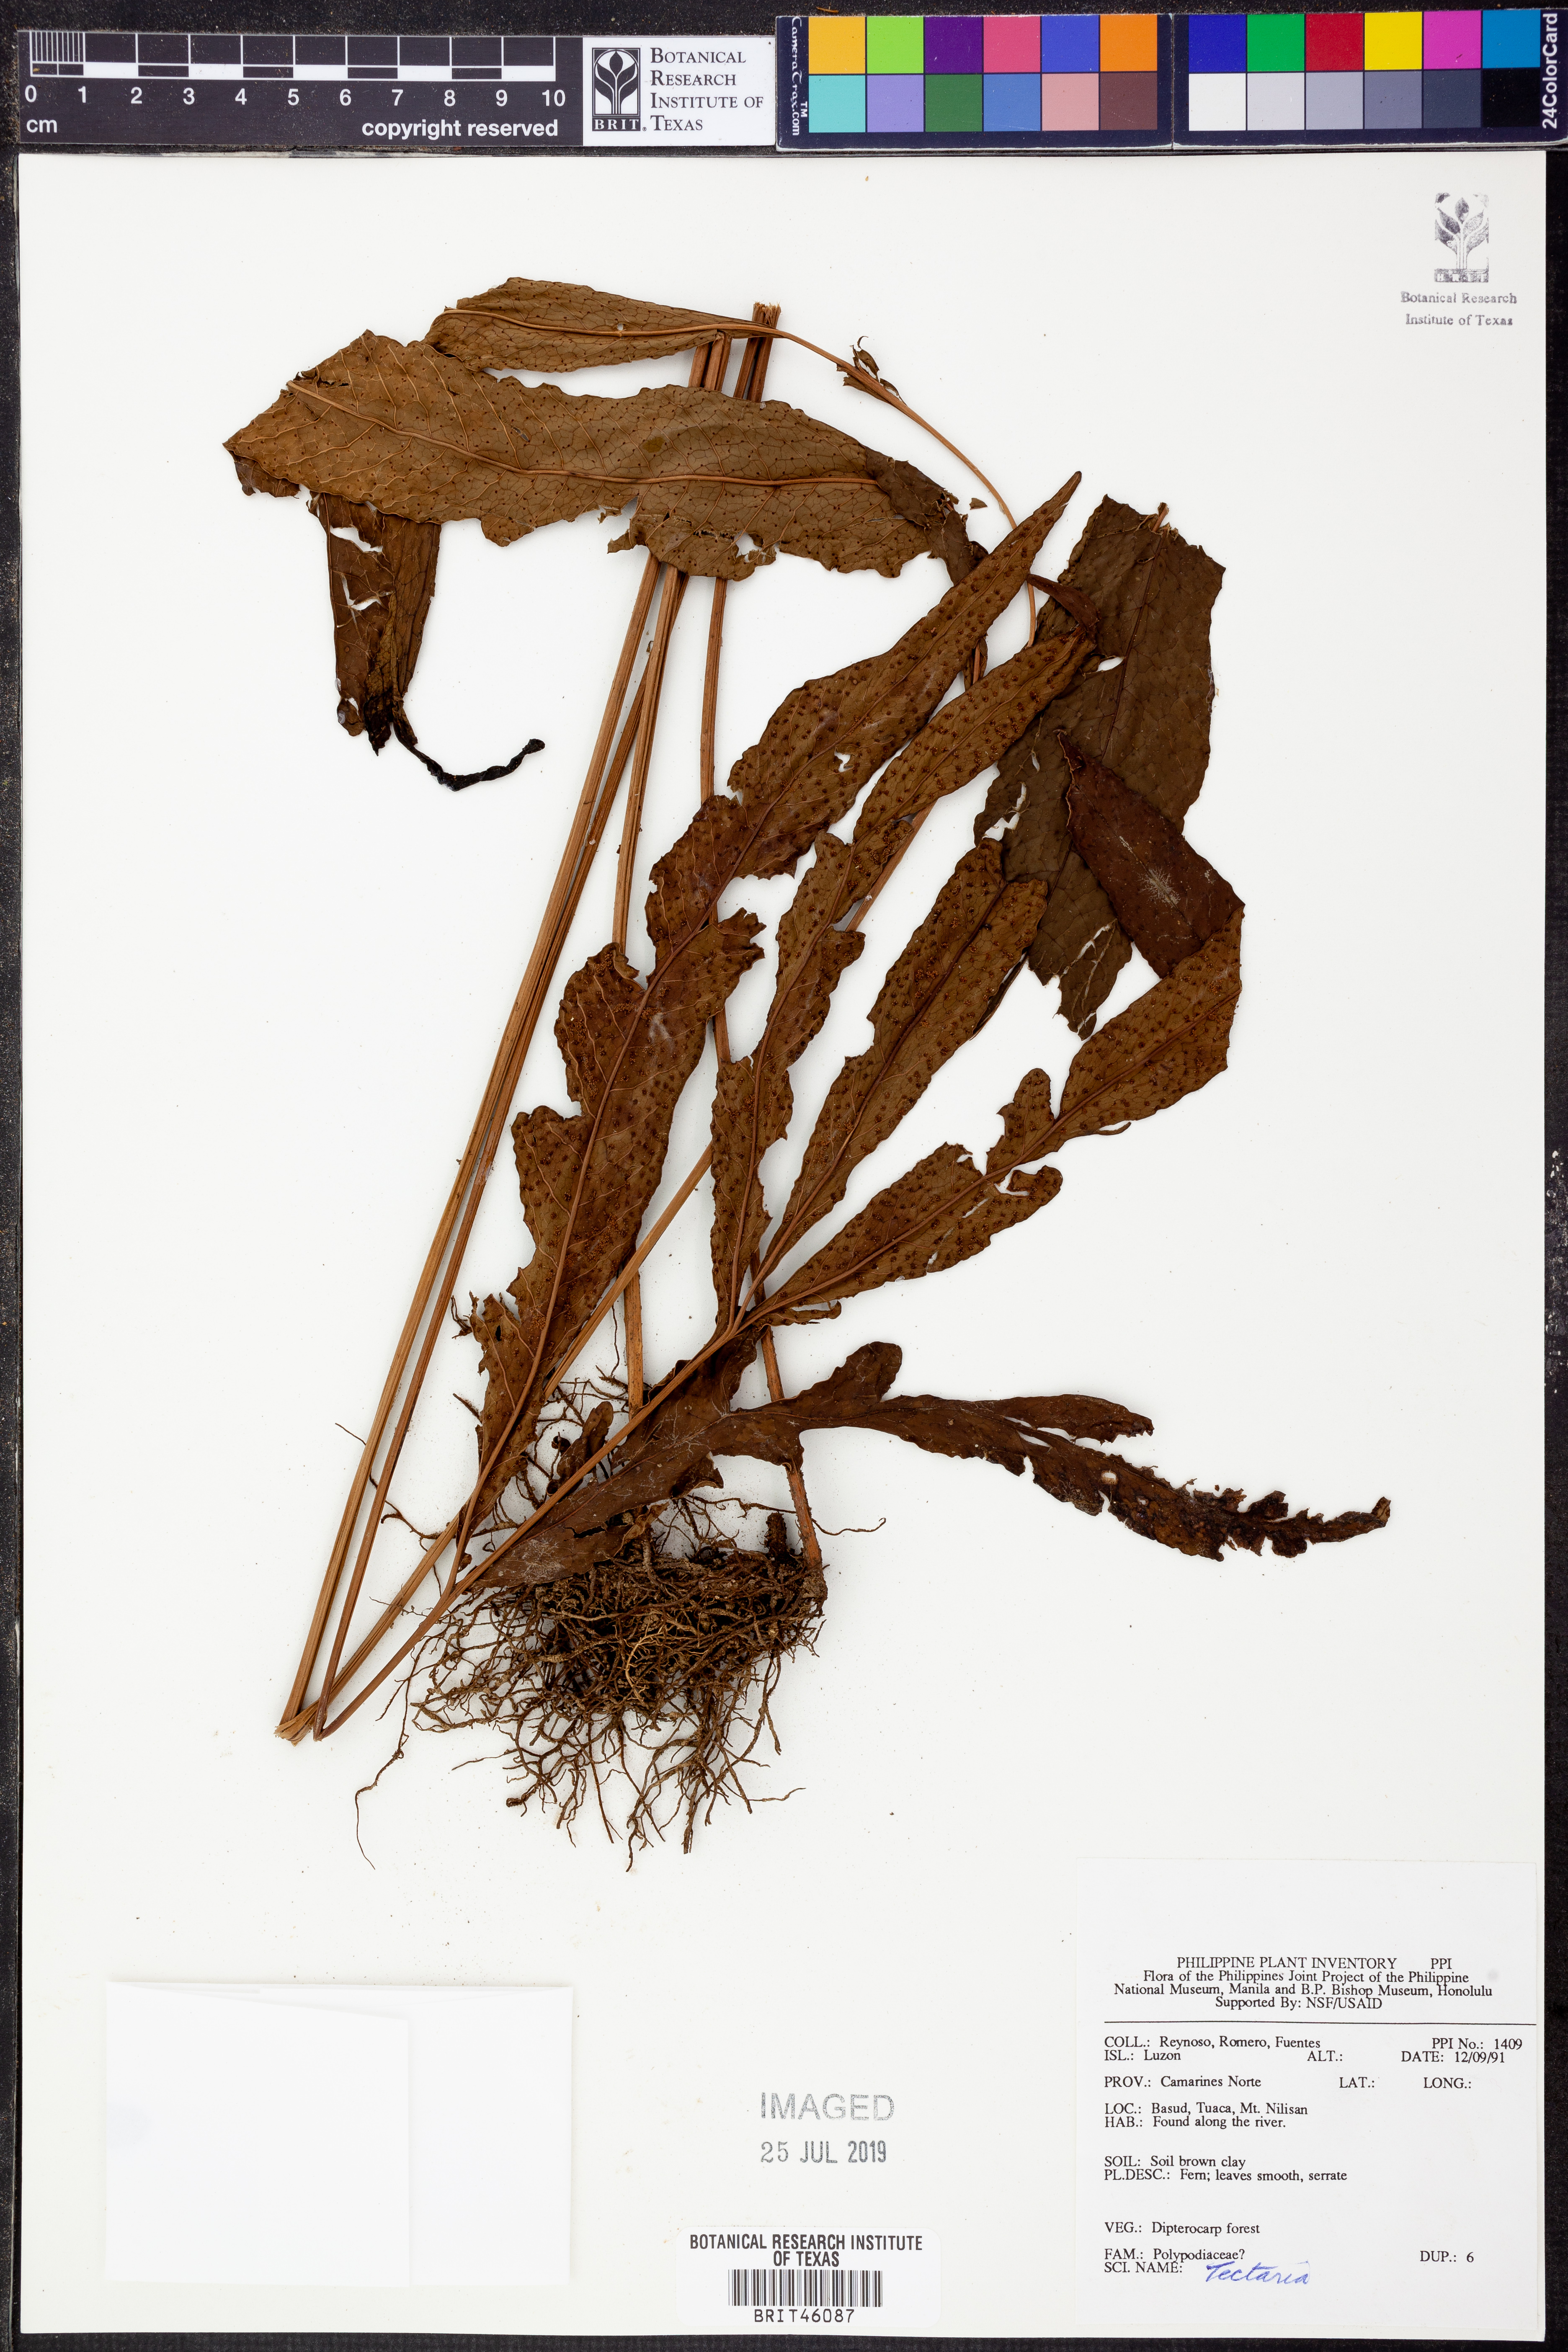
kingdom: Plantae
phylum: Tracheophyta
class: Polypodiopsida
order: Polypodiales
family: Tectariaceae
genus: Tectaria
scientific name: Tectaria
